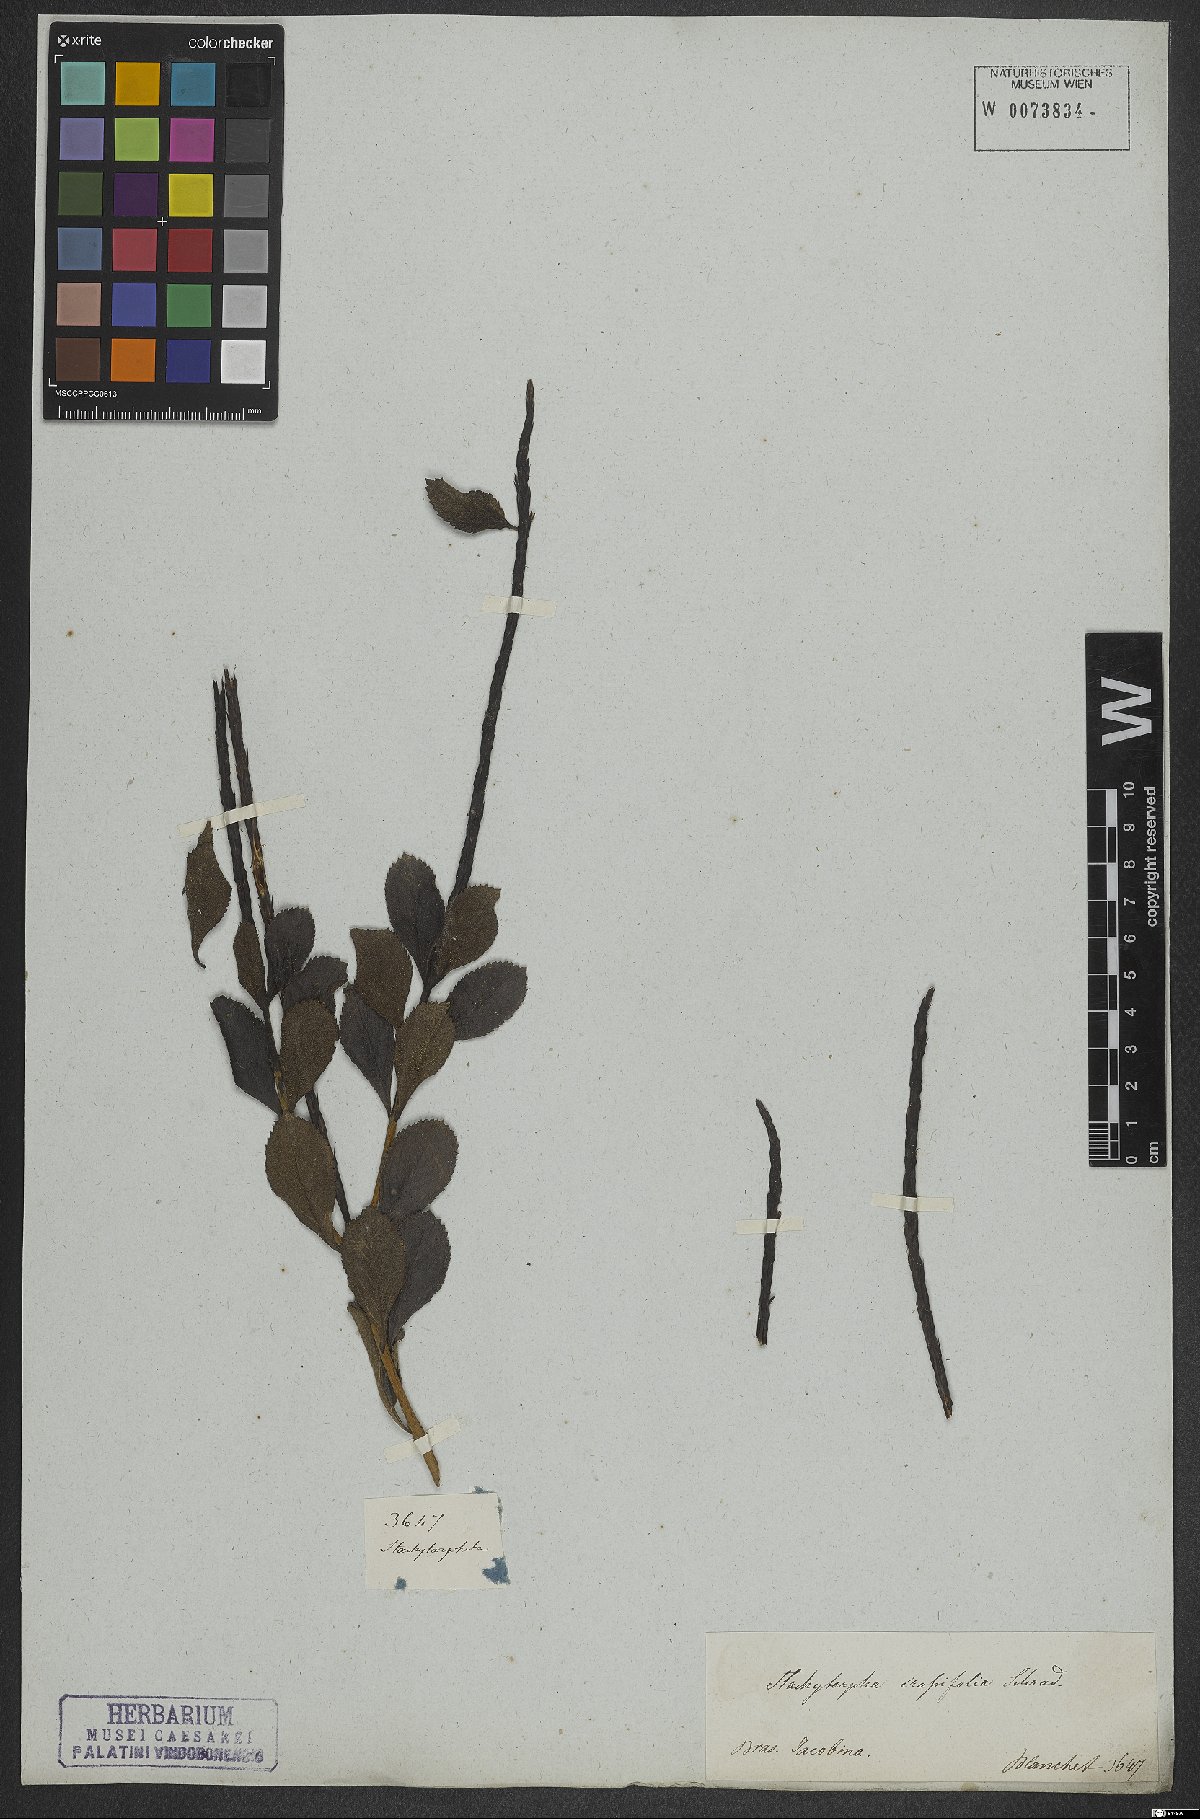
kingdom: Plantae
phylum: Tracheophyta
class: Magnoliopsida
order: Lamiales
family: Verbenaceae
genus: Stachytarpheta
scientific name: Stachytarpheta crassifolia
